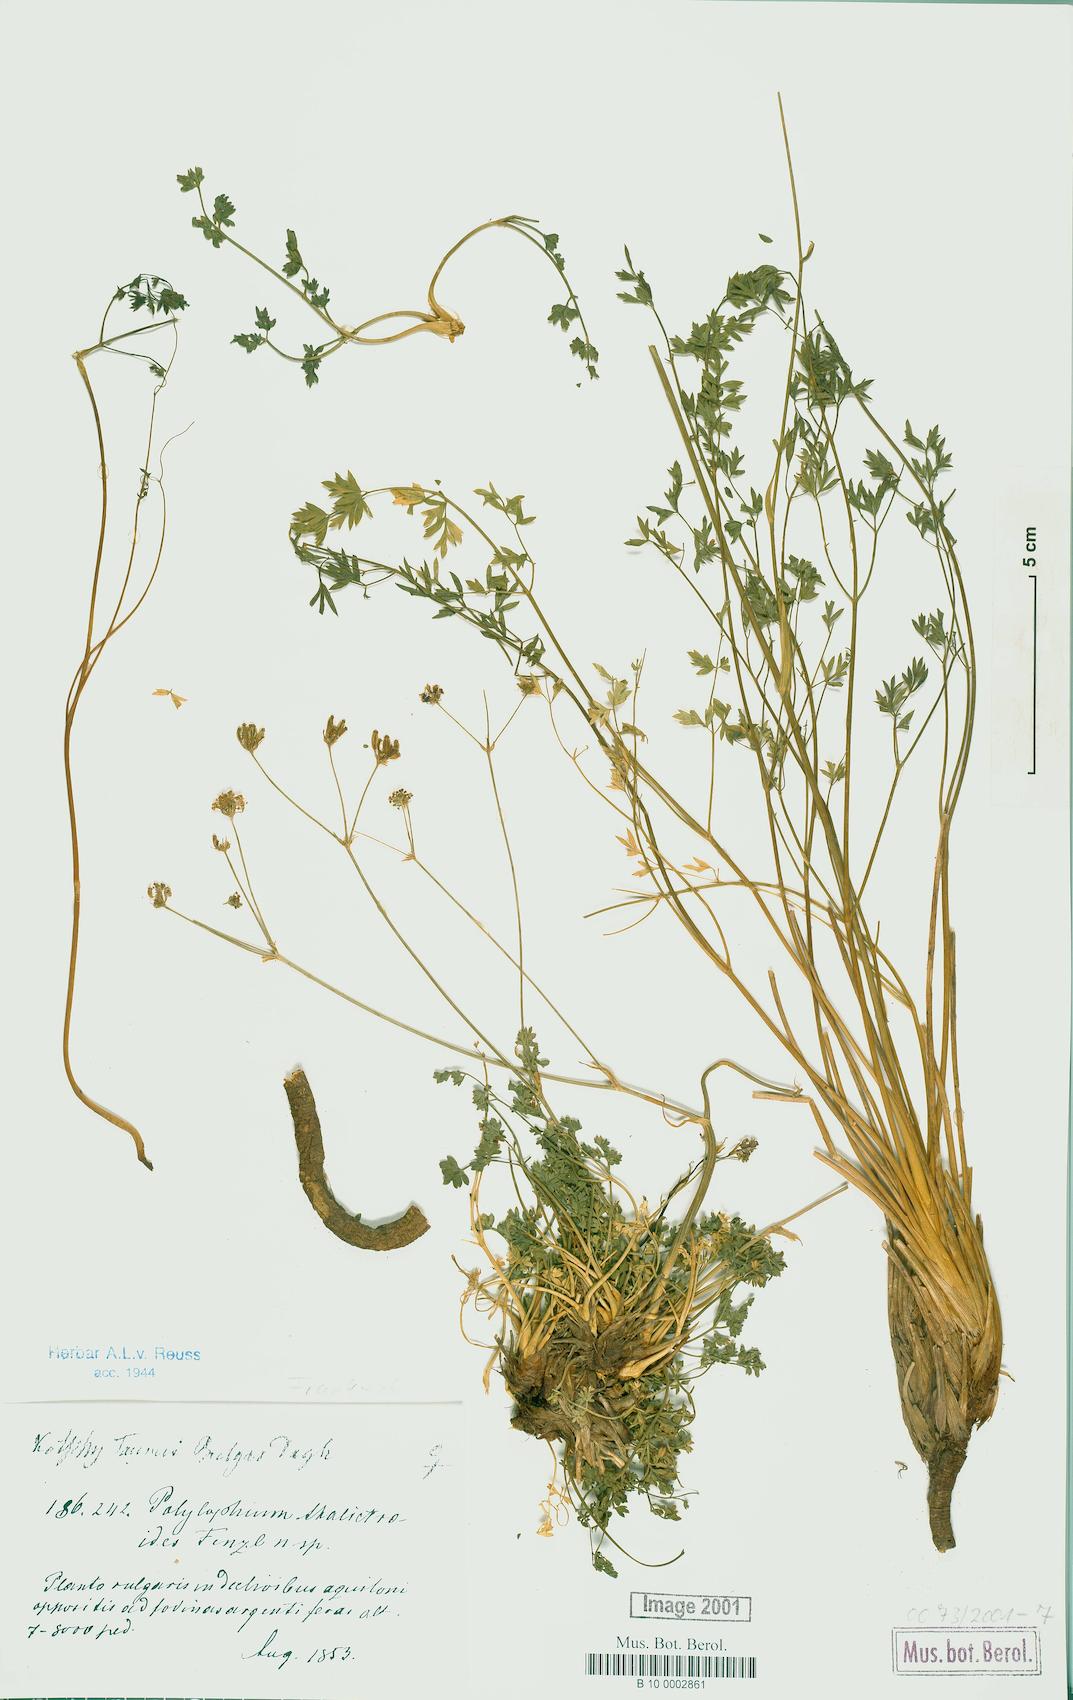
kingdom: Plantae
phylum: Tracheophyta
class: Magnoliopsida
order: Apiales
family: Apiaceae
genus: Ekimia
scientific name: Ekimia petrophila
